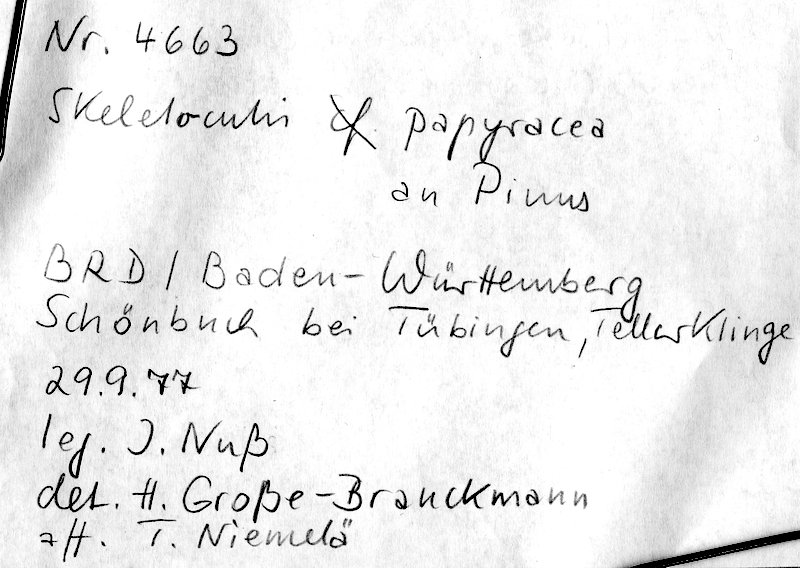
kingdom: Plantae
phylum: Tracheophyta
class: Pinopsida
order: Pinales
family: Pinaceae
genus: Pinus
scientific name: Pinus
